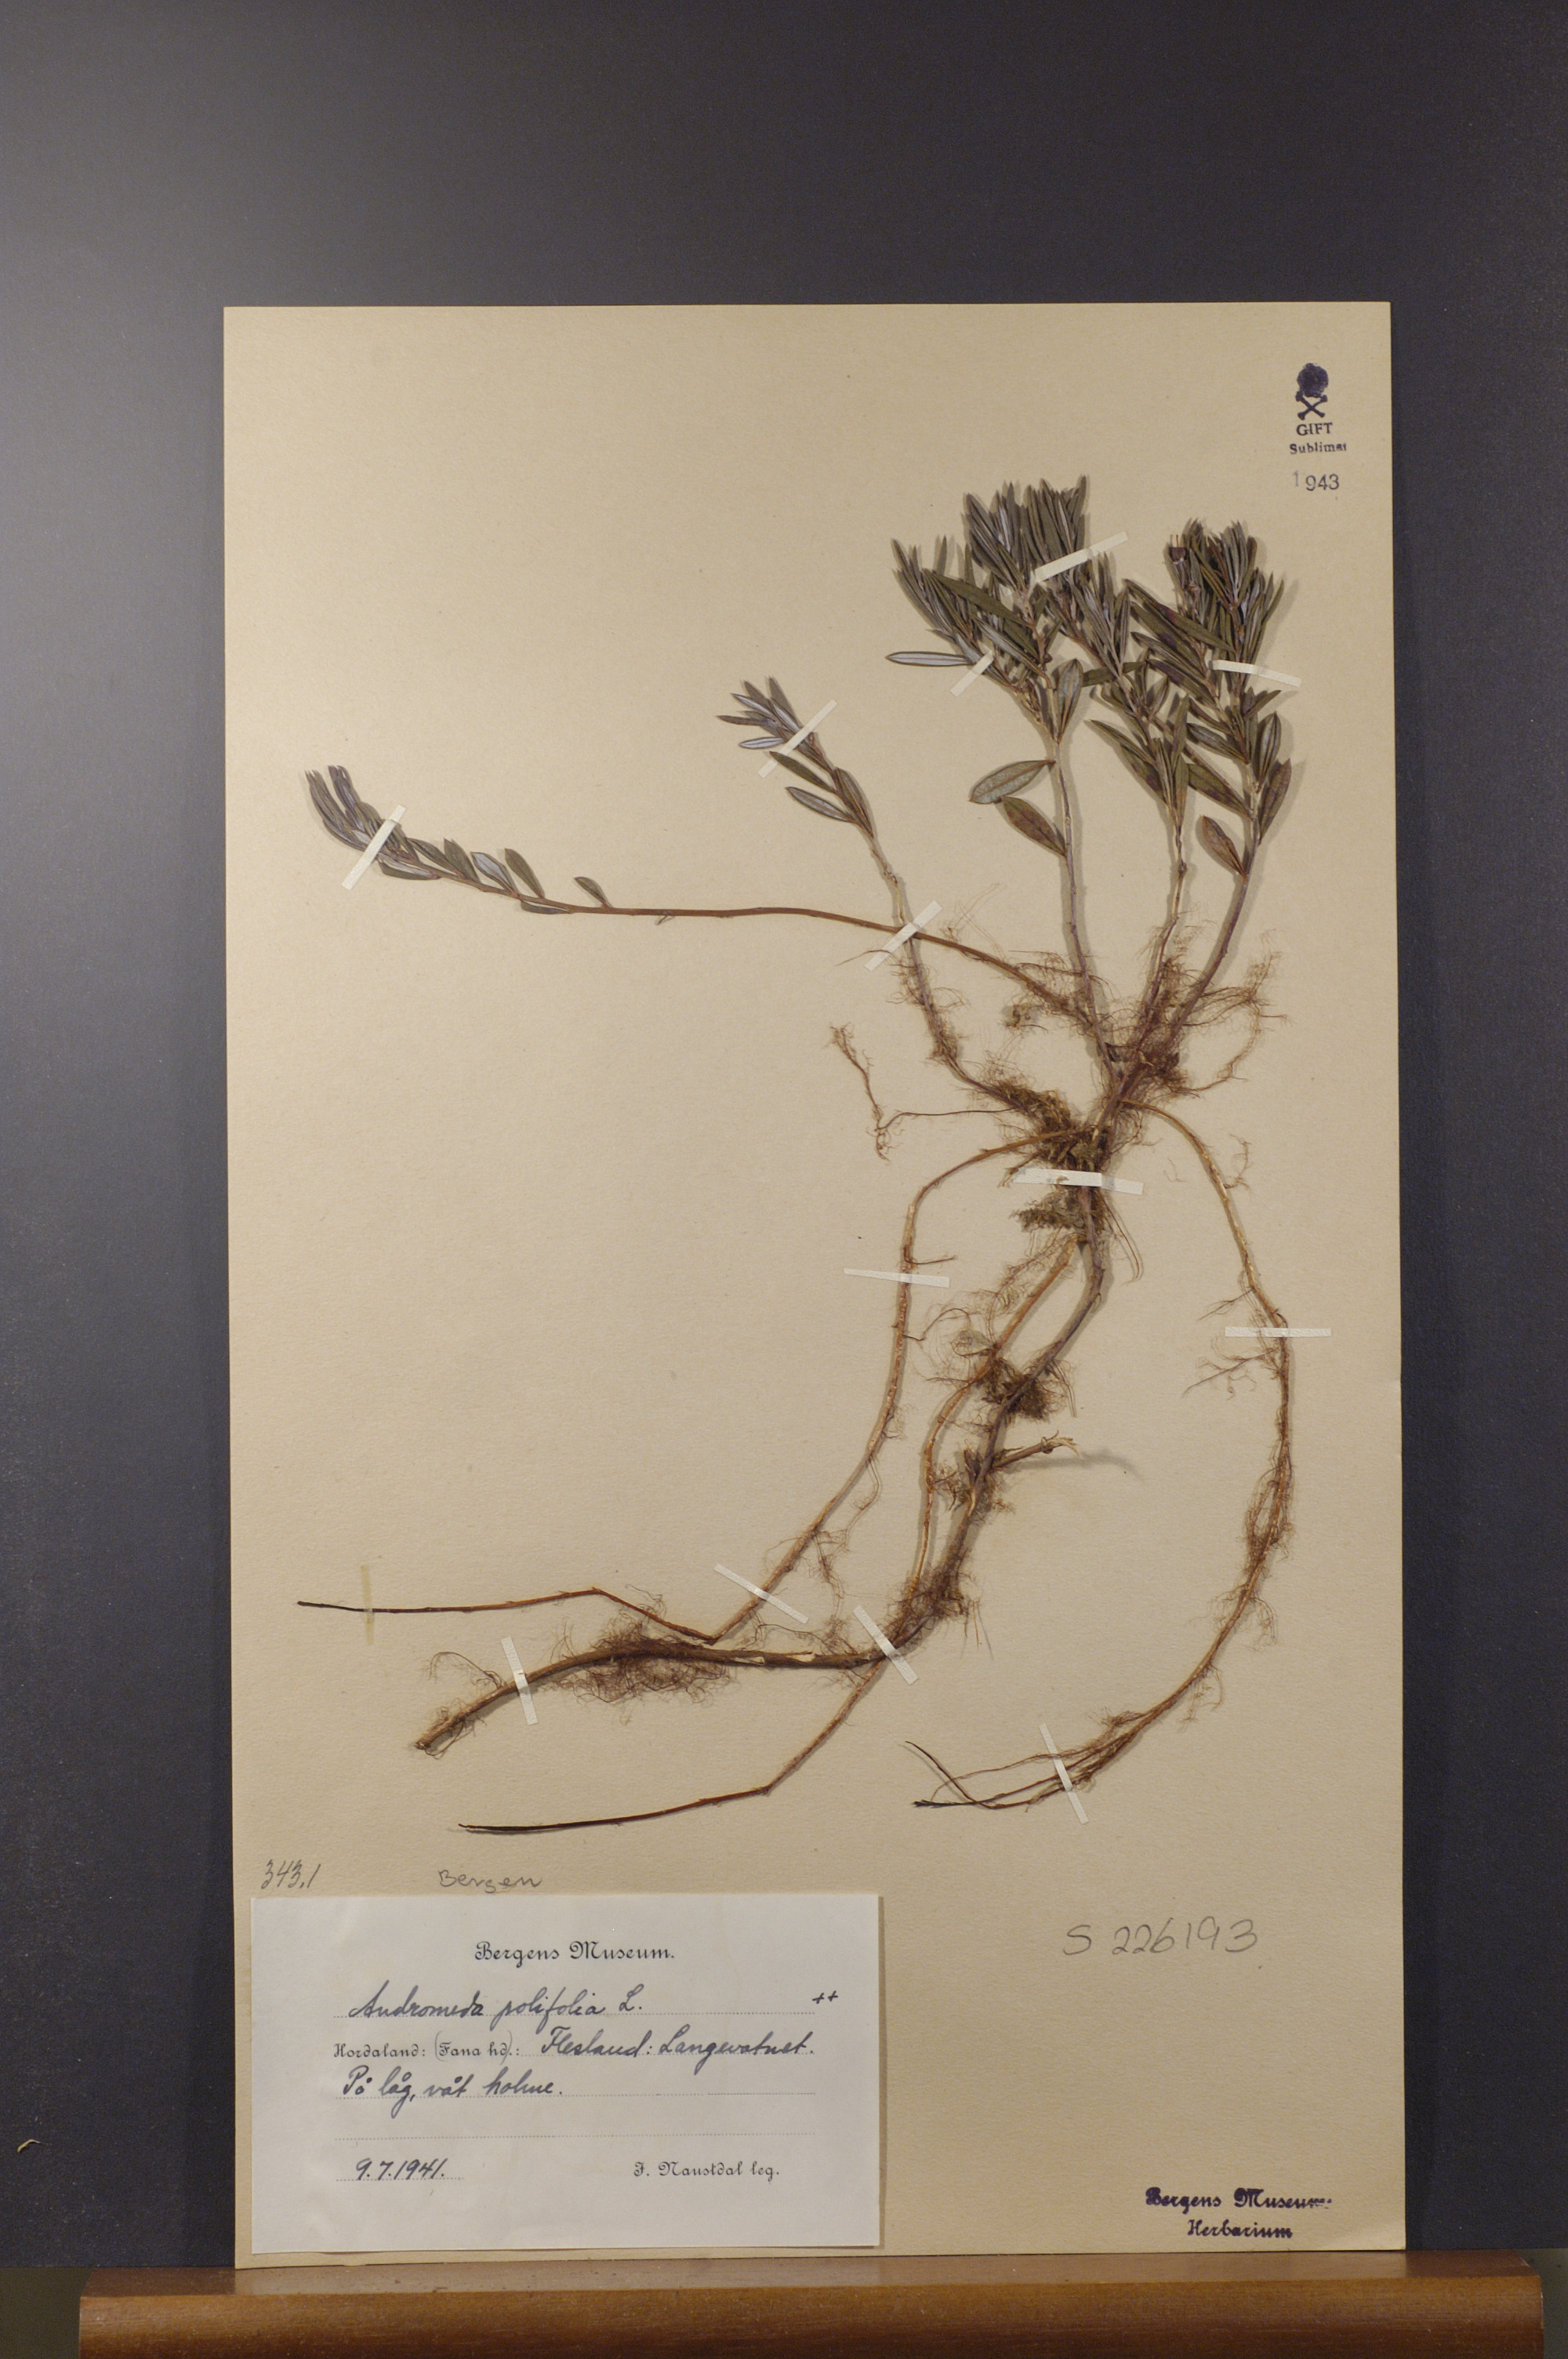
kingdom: Plantae
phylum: Tracheophyta
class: Magnoliopsida
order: Ericales
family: Ericaceae
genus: Andromeda
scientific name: Andromeda polifolia
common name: Bog-rosemary
